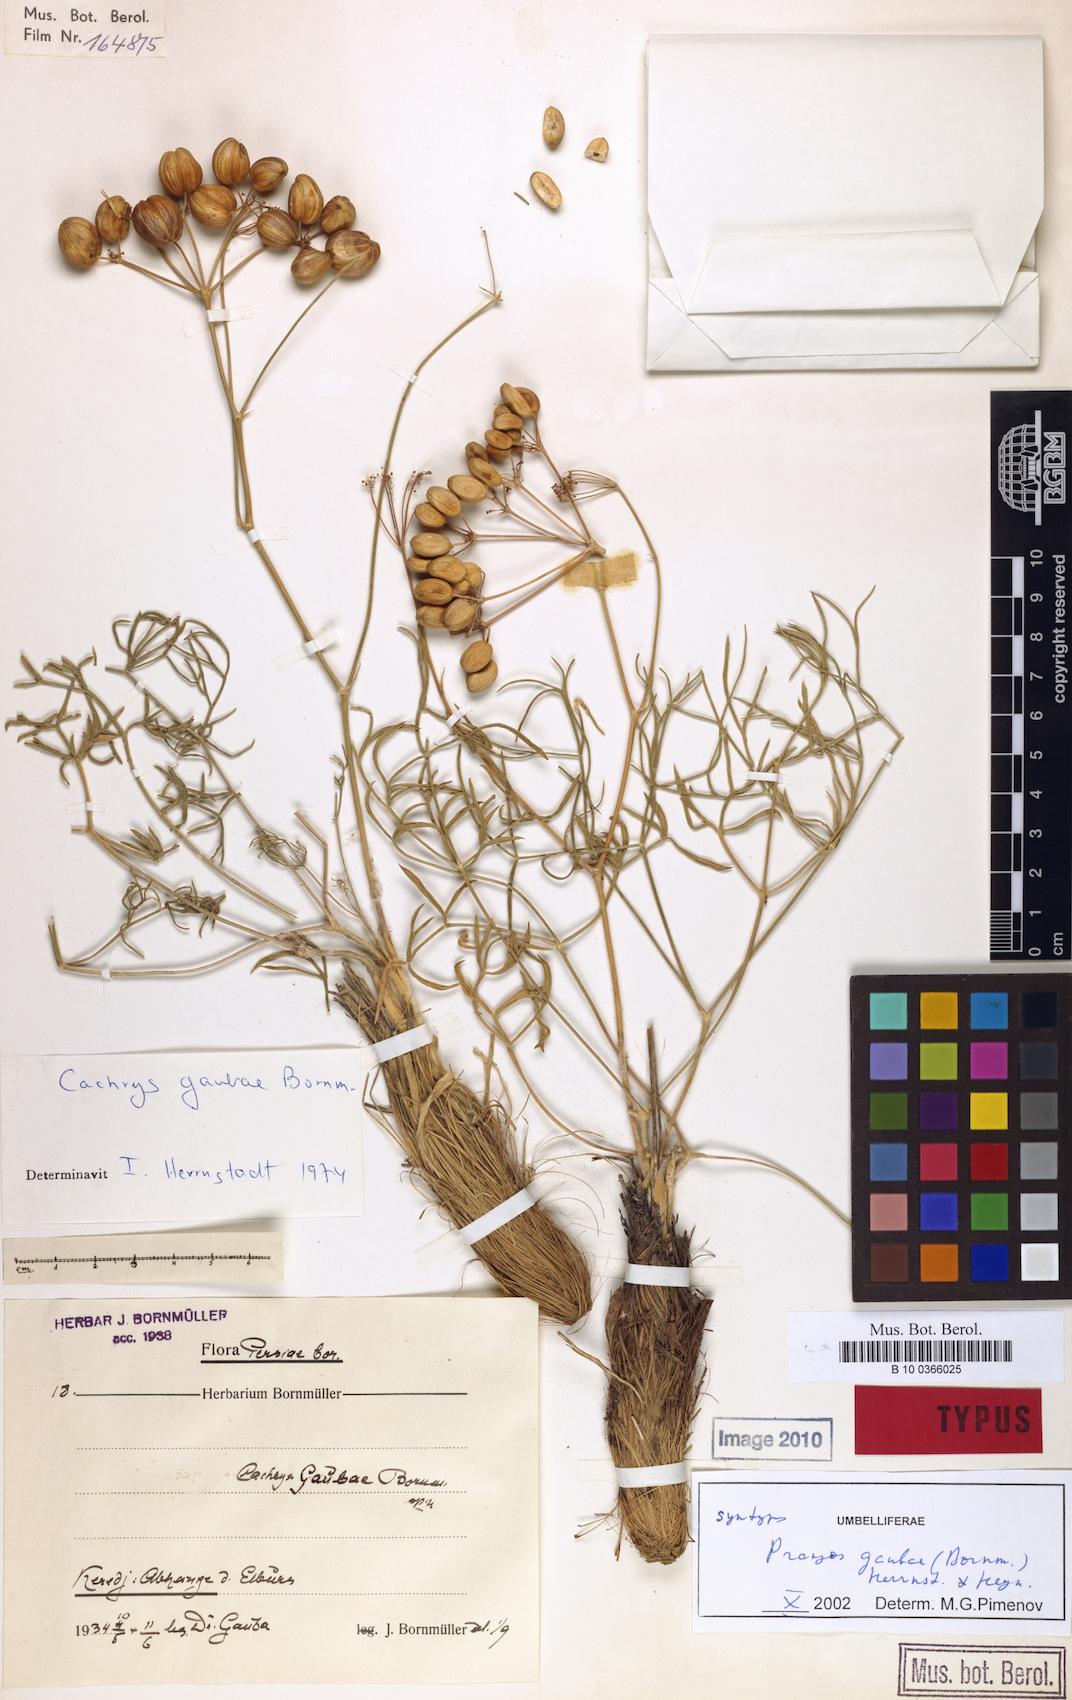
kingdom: Plantae
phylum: Tracheophyta
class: Magnoliopsida
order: Apiales
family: Apiaceae
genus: Prangos
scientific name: Prangos gaubae
